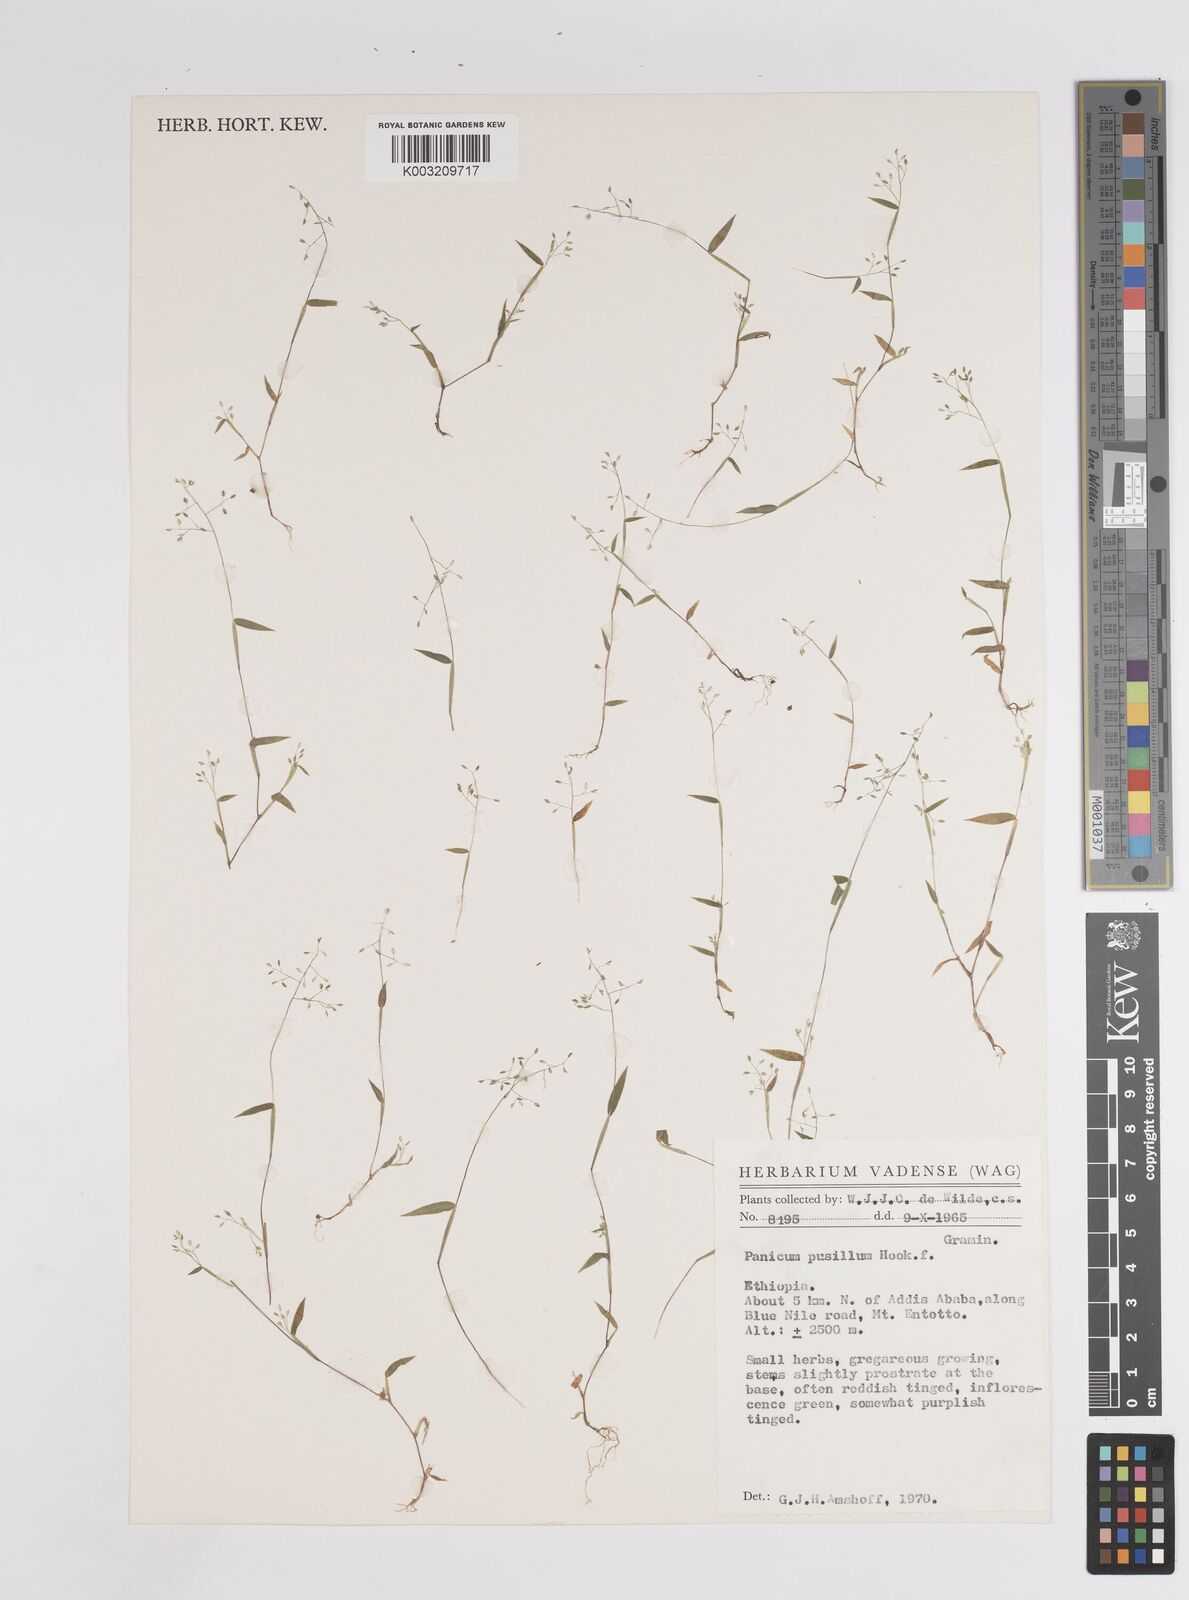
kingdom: Plantae
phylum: Tracheophyta
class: Liliopsida
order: Poales
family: Poaceae
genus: Panicum
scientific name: Panicum pusillum
